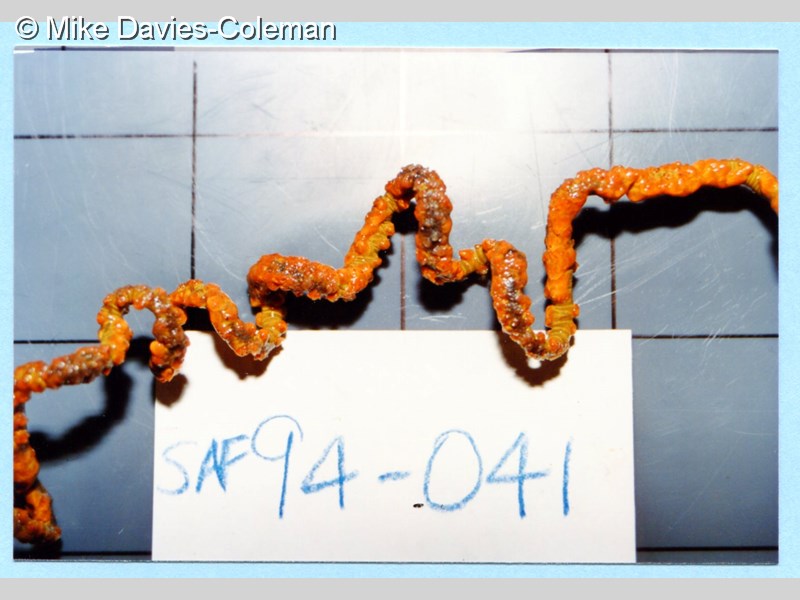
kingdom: Animalia
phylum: Cnidaria
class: Anthozoa
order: Antipatharia
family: Antipathidae
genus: Cirrhipathes
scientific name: Cirrhipathes
